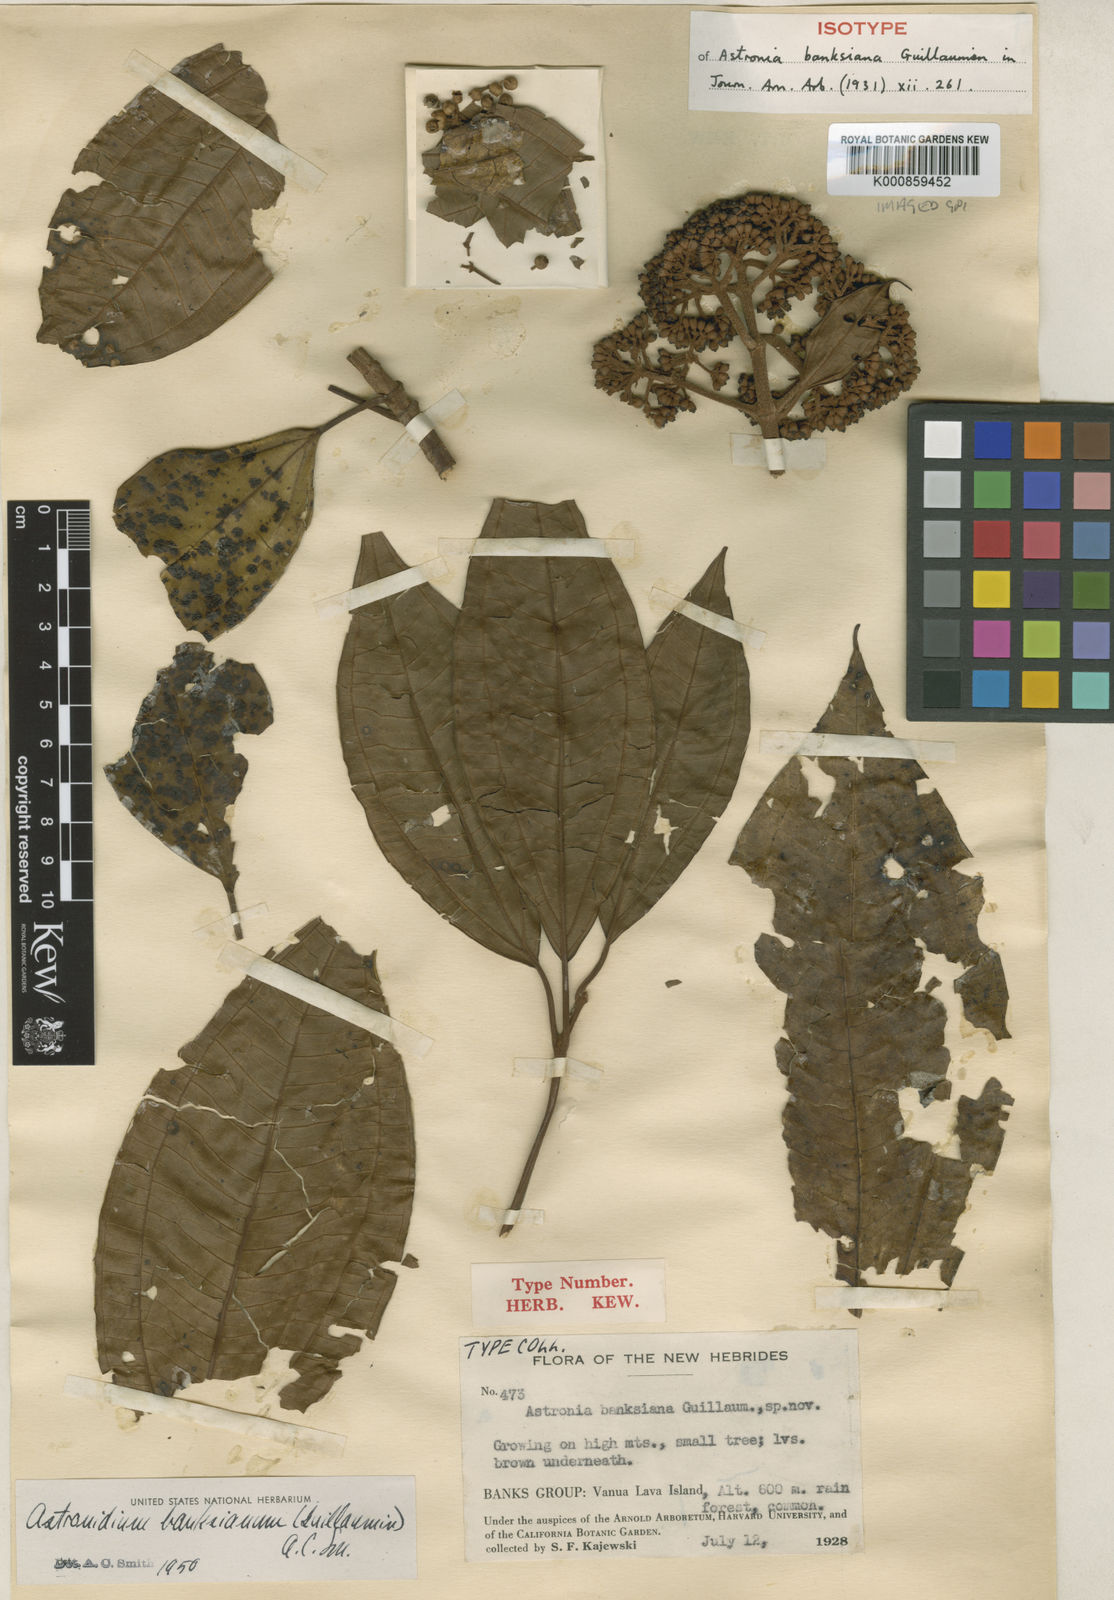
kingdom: Plantae
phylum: Tracheophyta
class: Magnoliopsida
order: Myrtales
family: Melastomataceae
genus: Astronidium
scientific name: Astronidium banksianum
